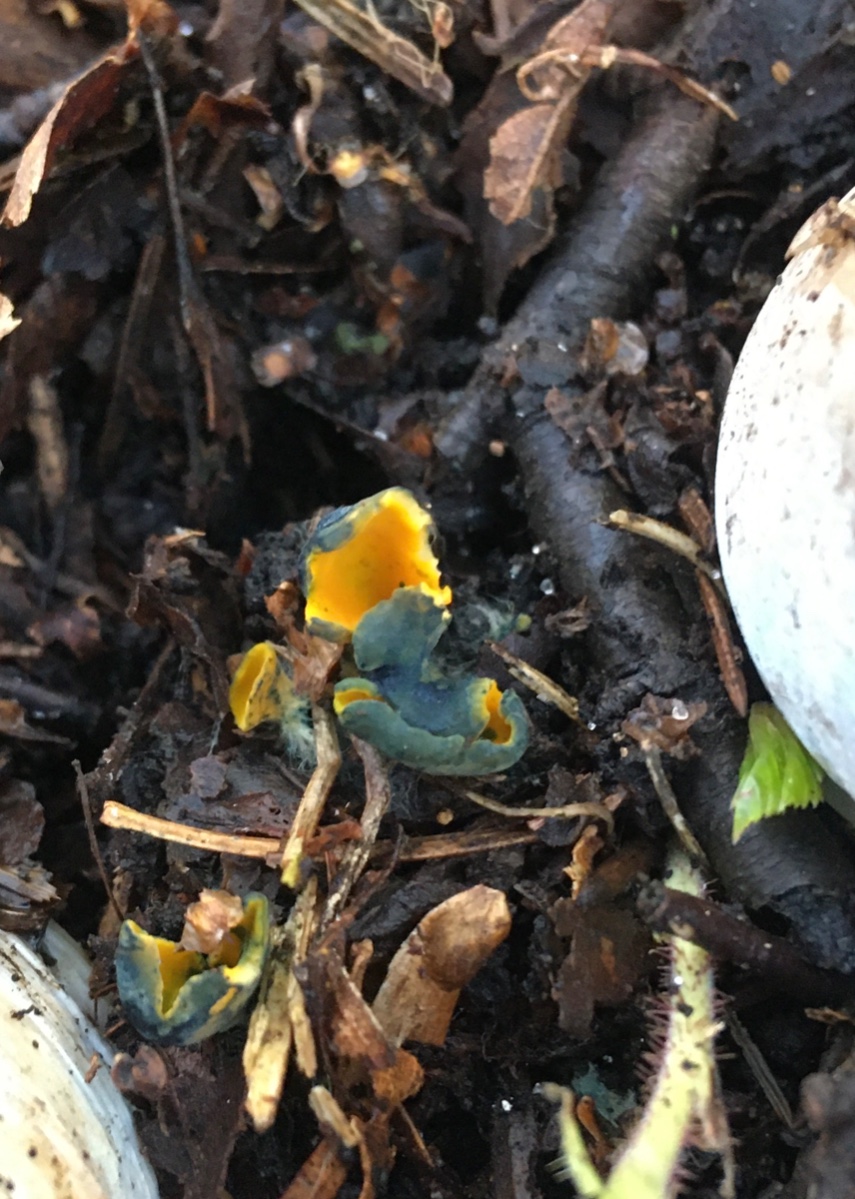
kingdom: Fungi
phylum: Ascomycota
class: Pezizomycetes
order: Pezizales
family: Caloscyphaceae
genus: Caloscypha
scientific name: Caloscypha fulgens
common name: jadebæger
